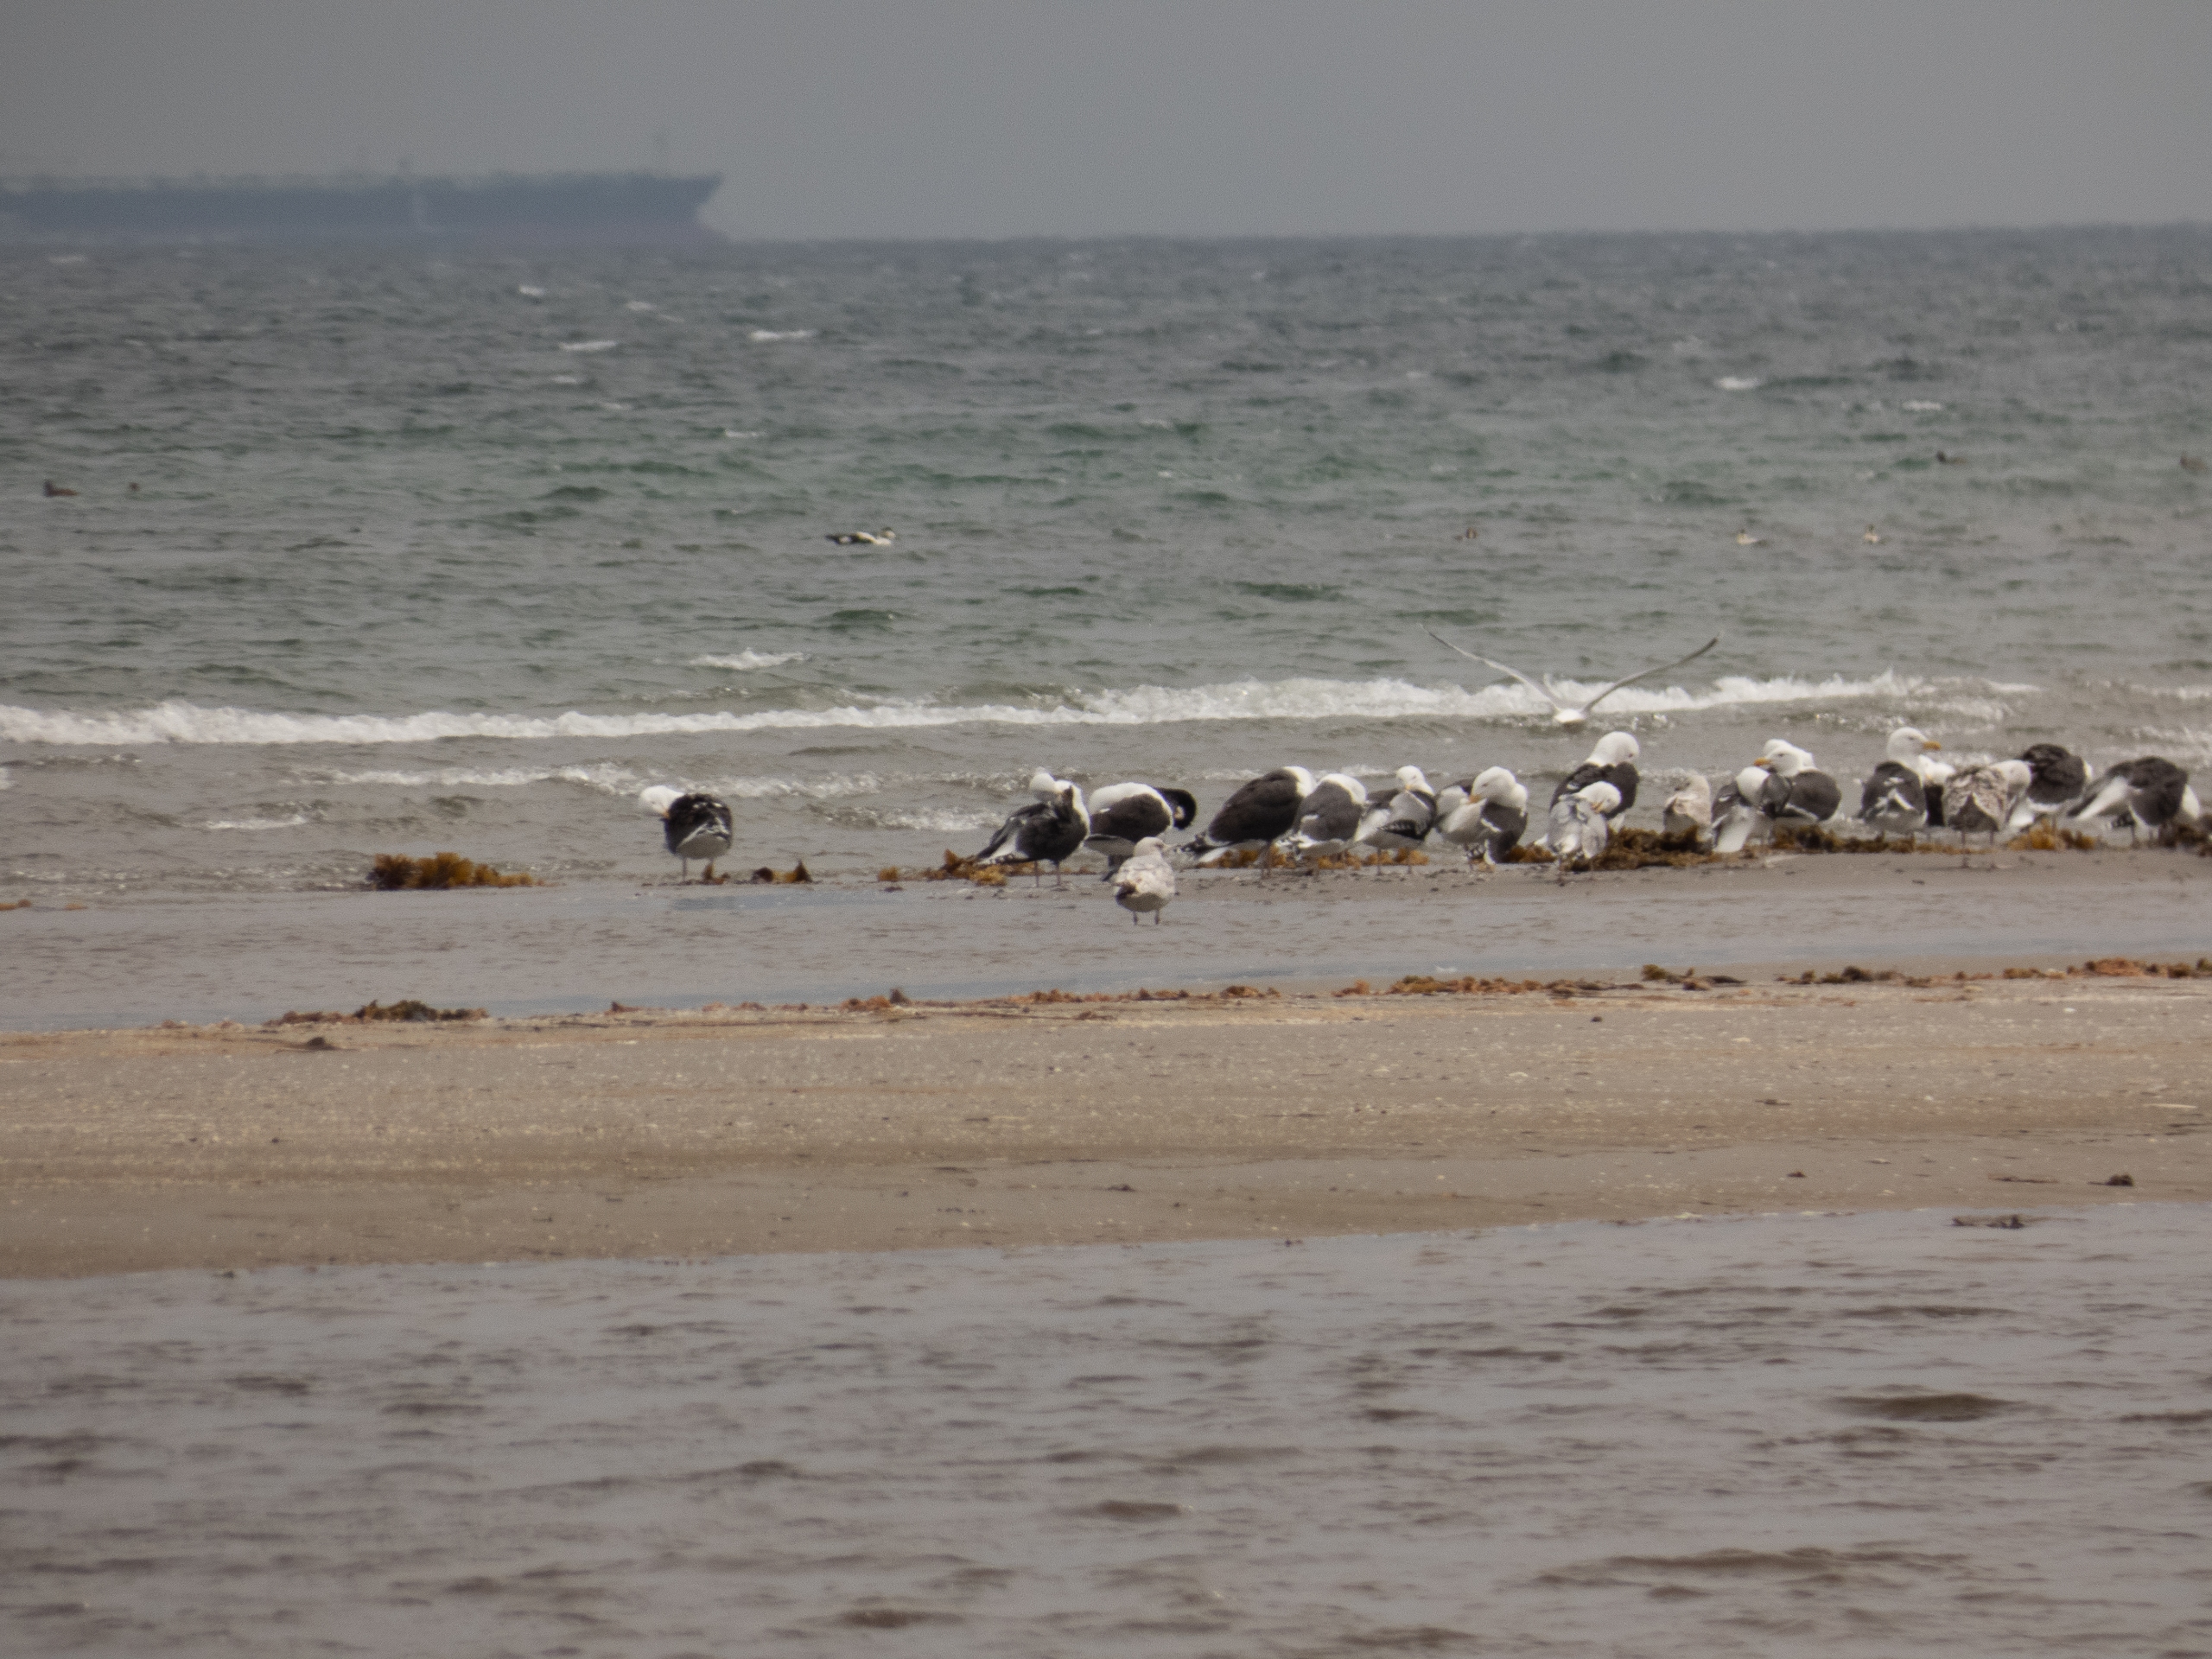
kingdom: Animalia
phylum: Chordata
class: Aves
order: Charadriiformes
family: Laridae
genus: Larus
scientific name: Larus marinus
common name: Svartbag
